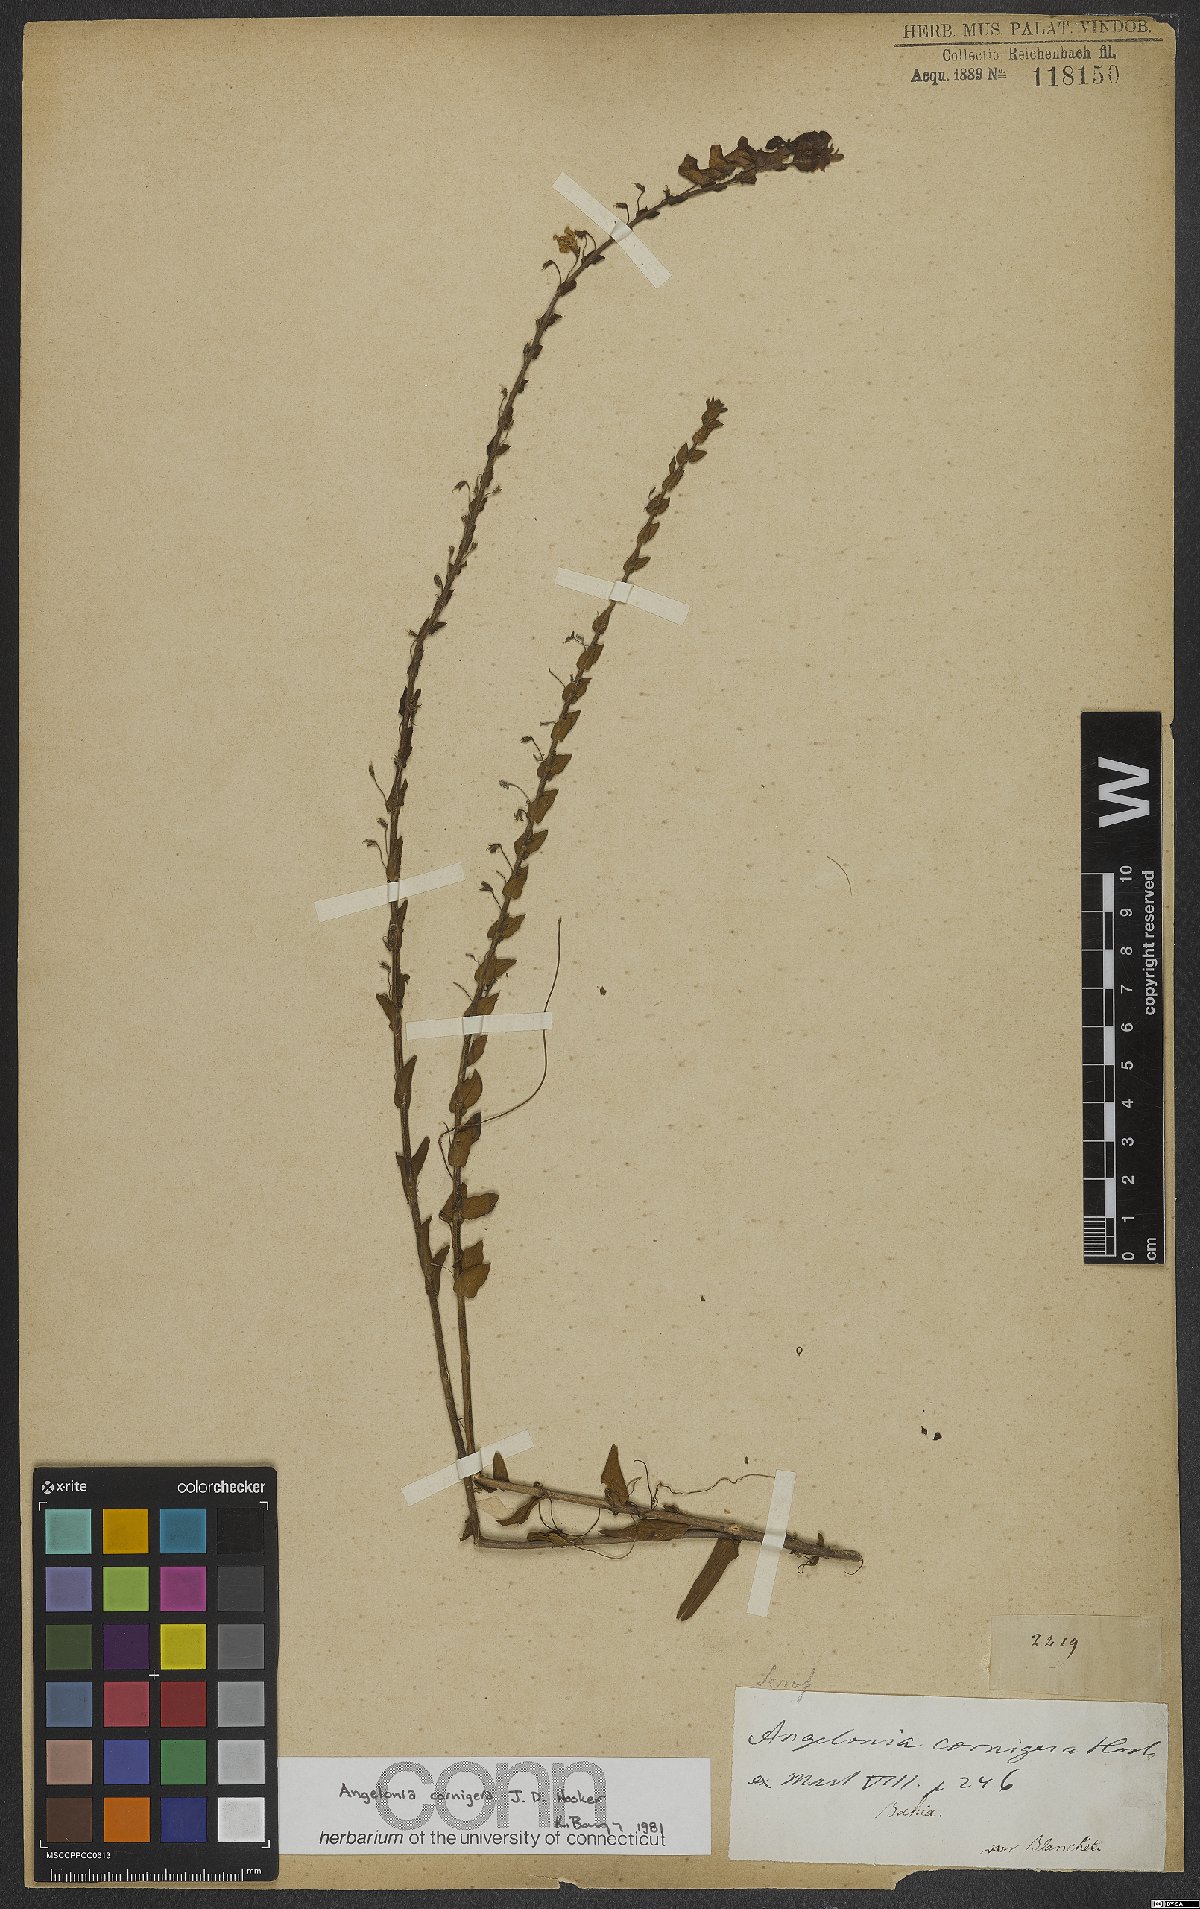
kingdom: Plantae
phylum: Tracheophyta
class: Magnoliopsida
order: Lamiales
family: Plantaginaceae
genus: Angelonia
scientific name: Angelonia cornigera
